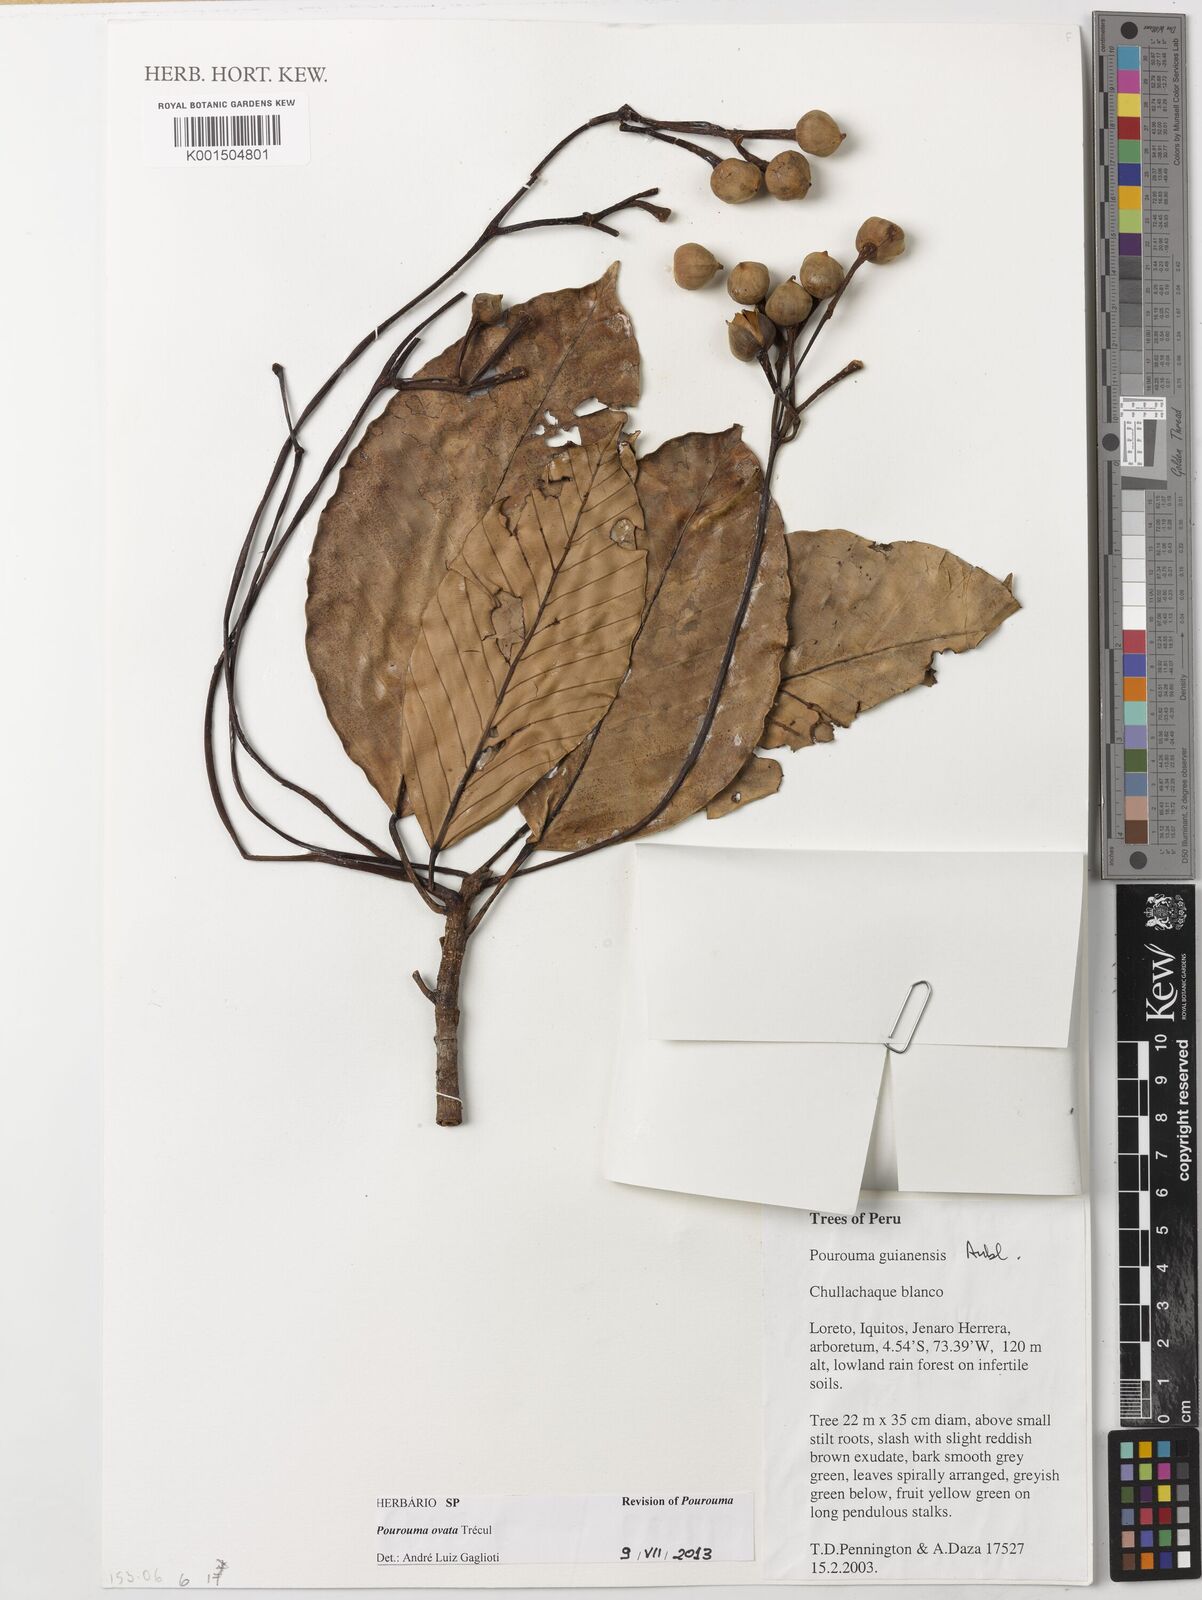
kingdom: Plantae
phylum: Tracheophyta
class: Magnoliopsida
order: Rosales
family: Urticaceae
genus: Pourouma
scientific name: Pourouma ovata
